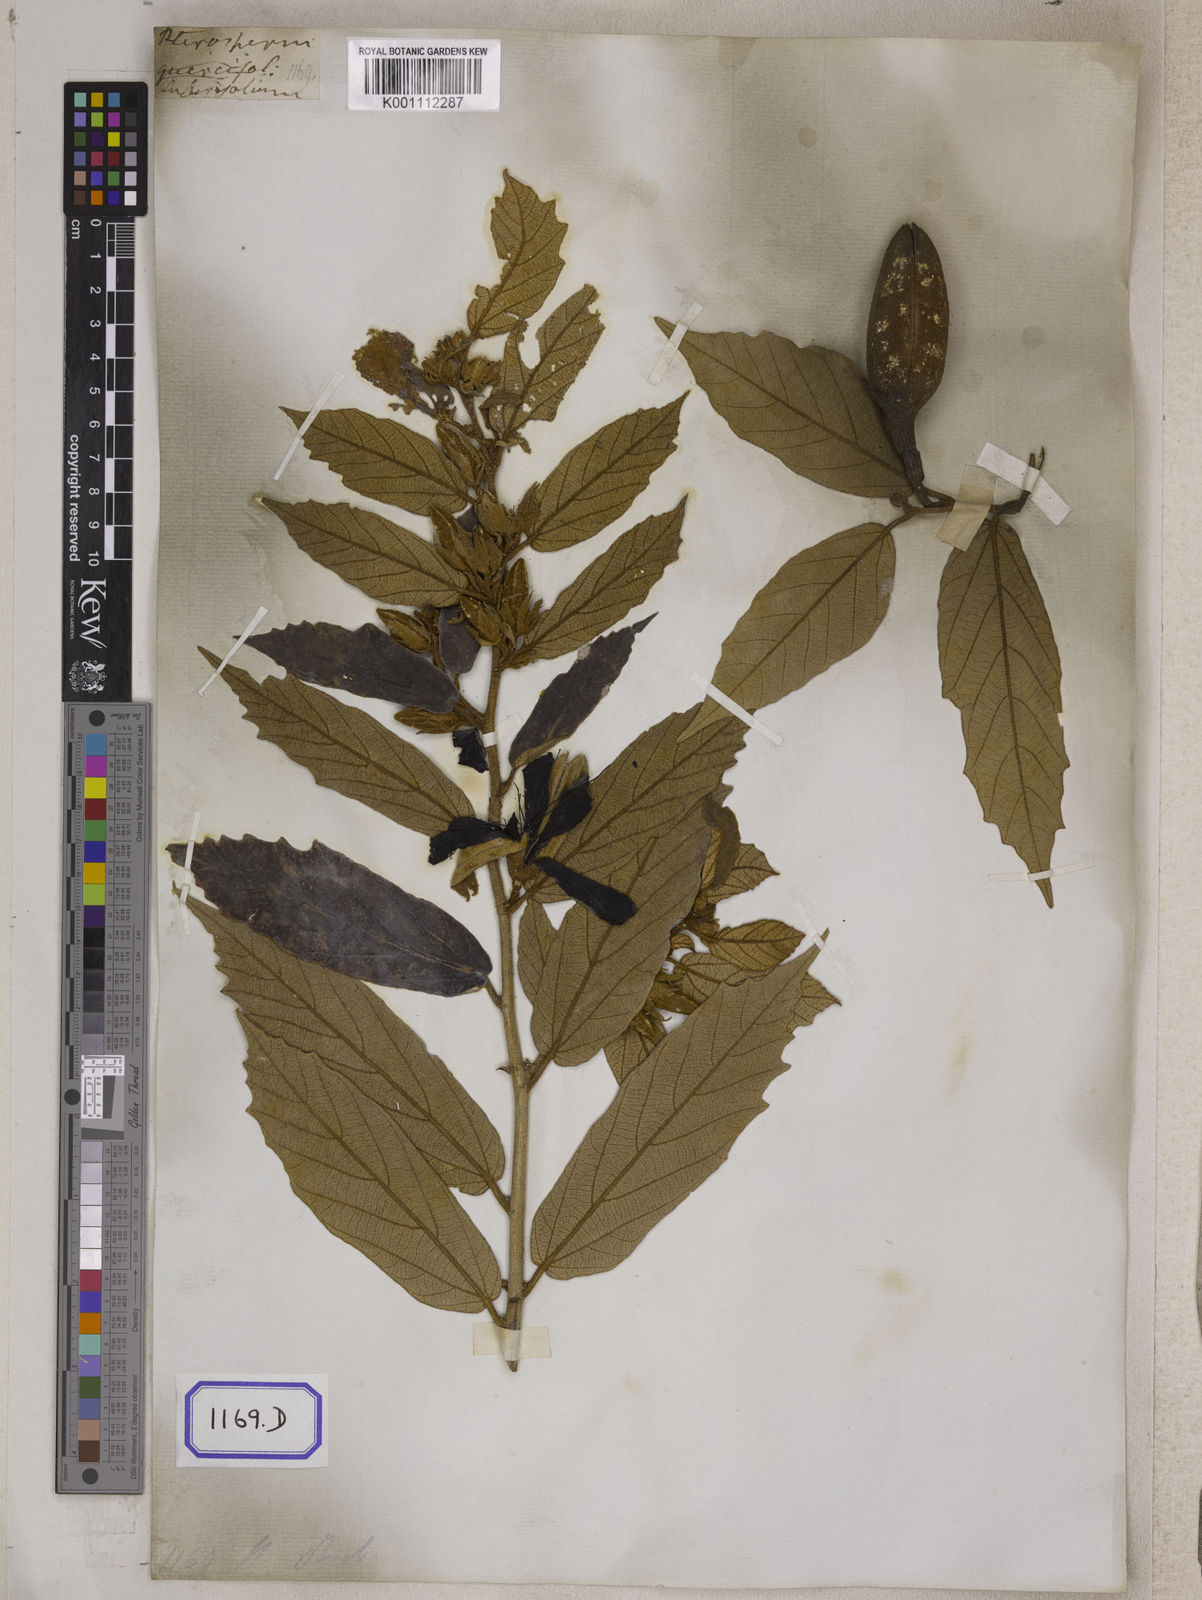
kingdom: Plantae
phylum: Tracheophyta
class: Magnoliopsida
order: Malvales
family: Malvaceae
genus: Pterospermum
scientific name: Pterospermum
